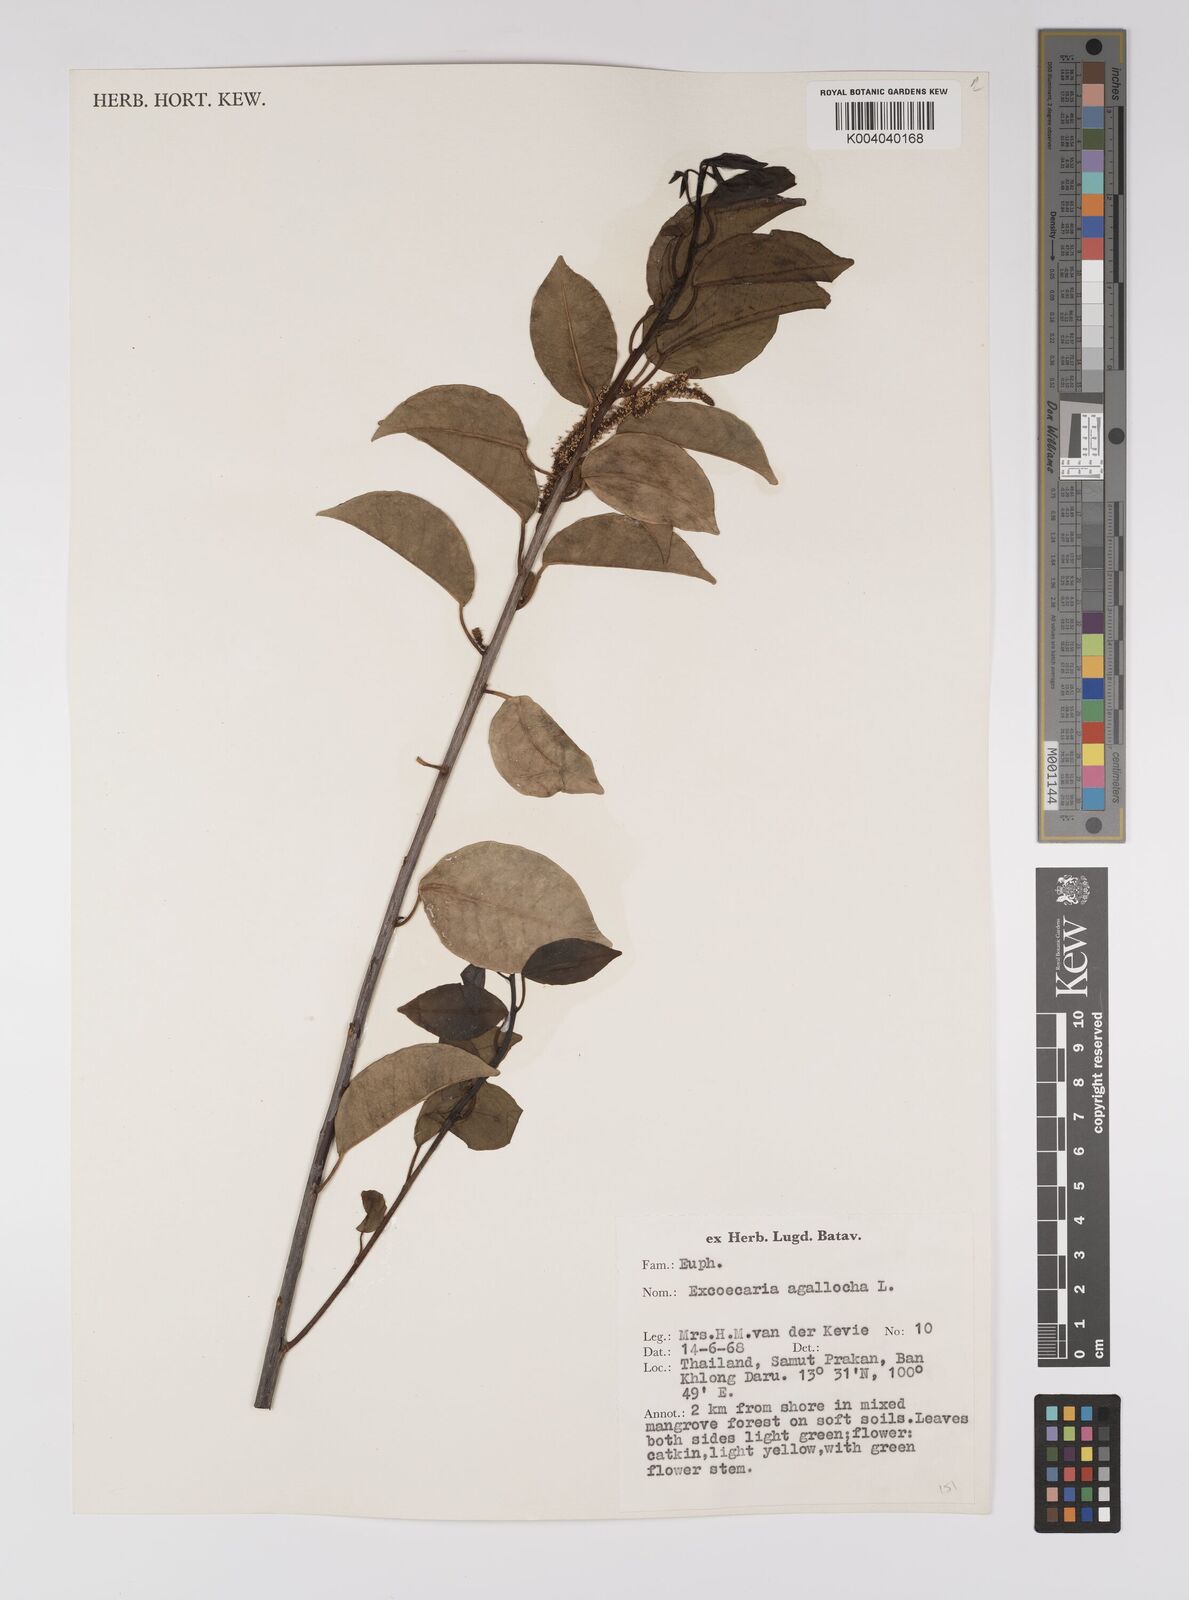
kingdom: Plantae
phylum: Tracheophyta
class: Magnoliopsida
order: Malpighiales
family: Euphorbiaceae
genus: Excoecaria
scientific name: Excoecaria agallocha
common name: River poisontree
